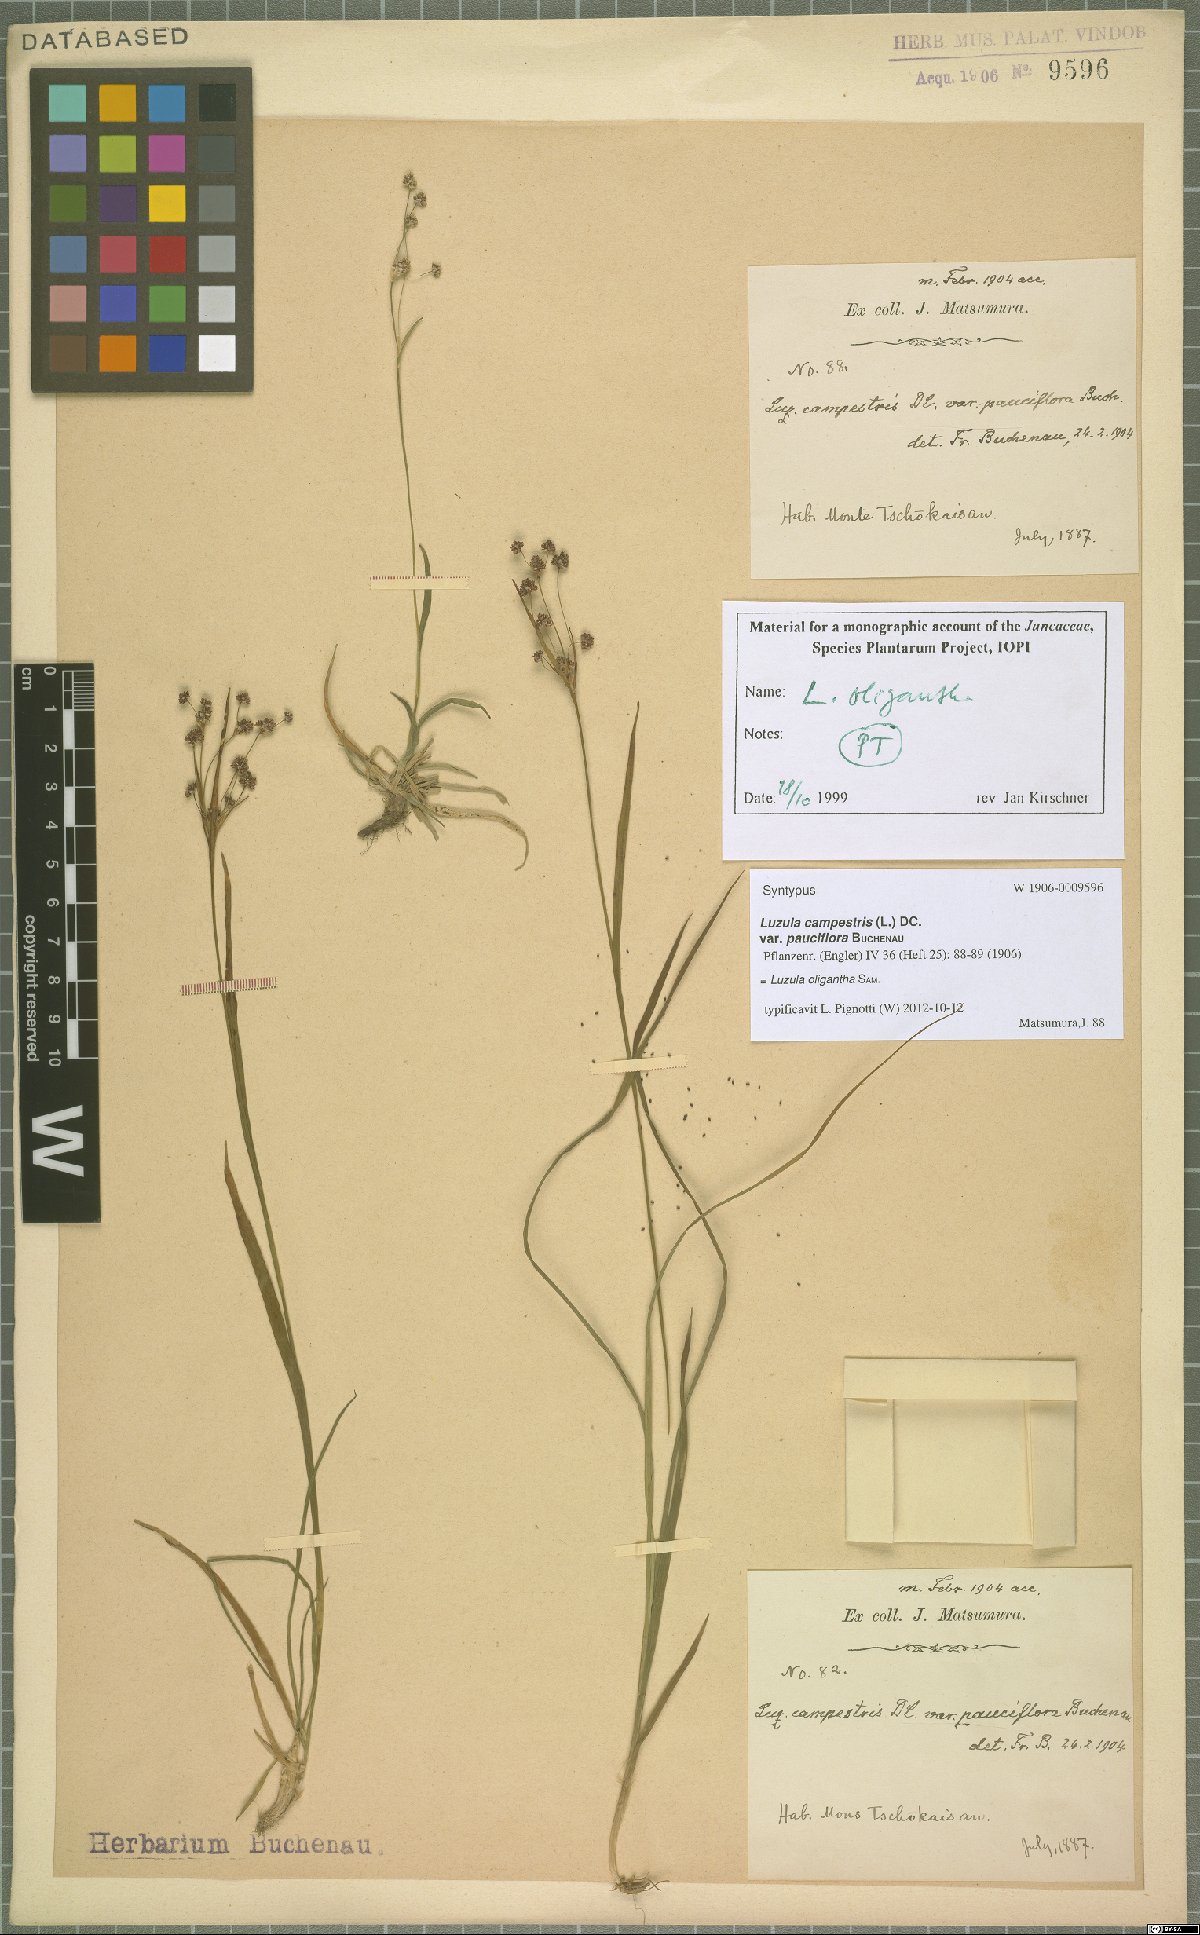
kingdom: Plantae
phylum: Tracheophyta
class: Liliopsida
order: Poales
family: Juncaceae
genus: Luzula
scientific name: Luzula oligantha
